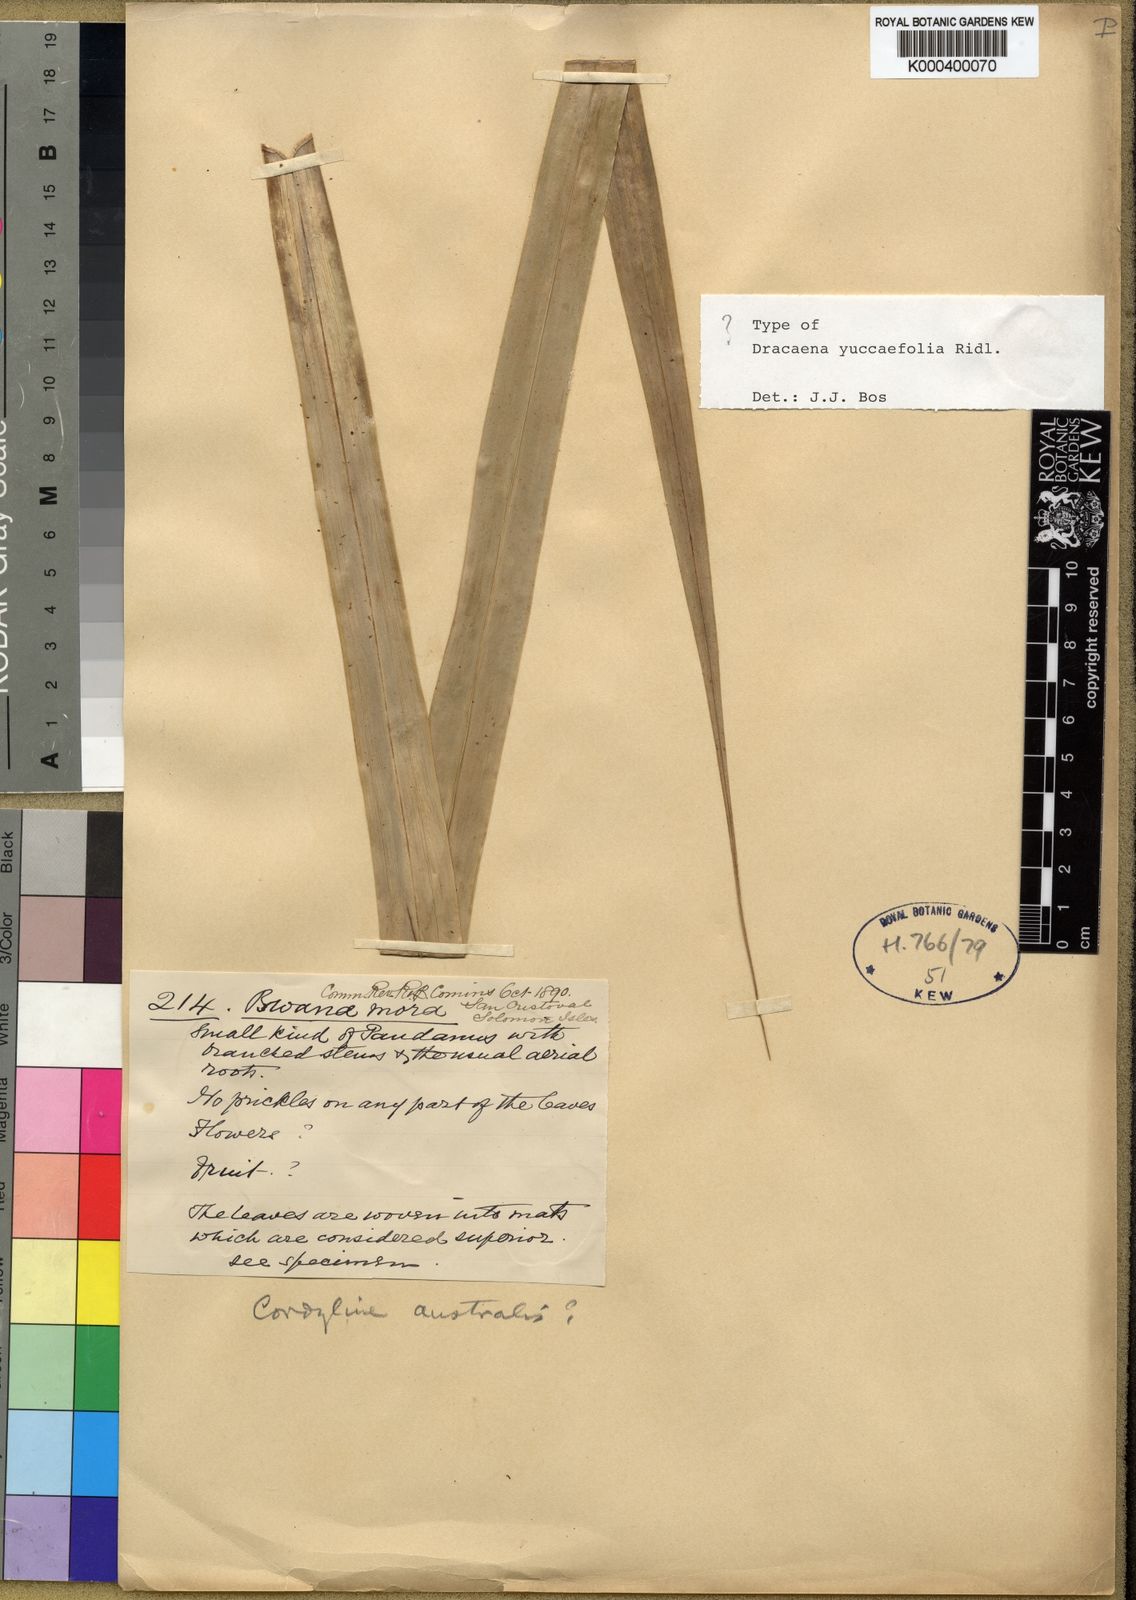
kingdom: Plantae
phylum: Tracheophyta
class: Liliopsida
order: Asparagales
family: Asparagaceae
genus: Dracaena
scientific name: Dracaena yuccifolia
